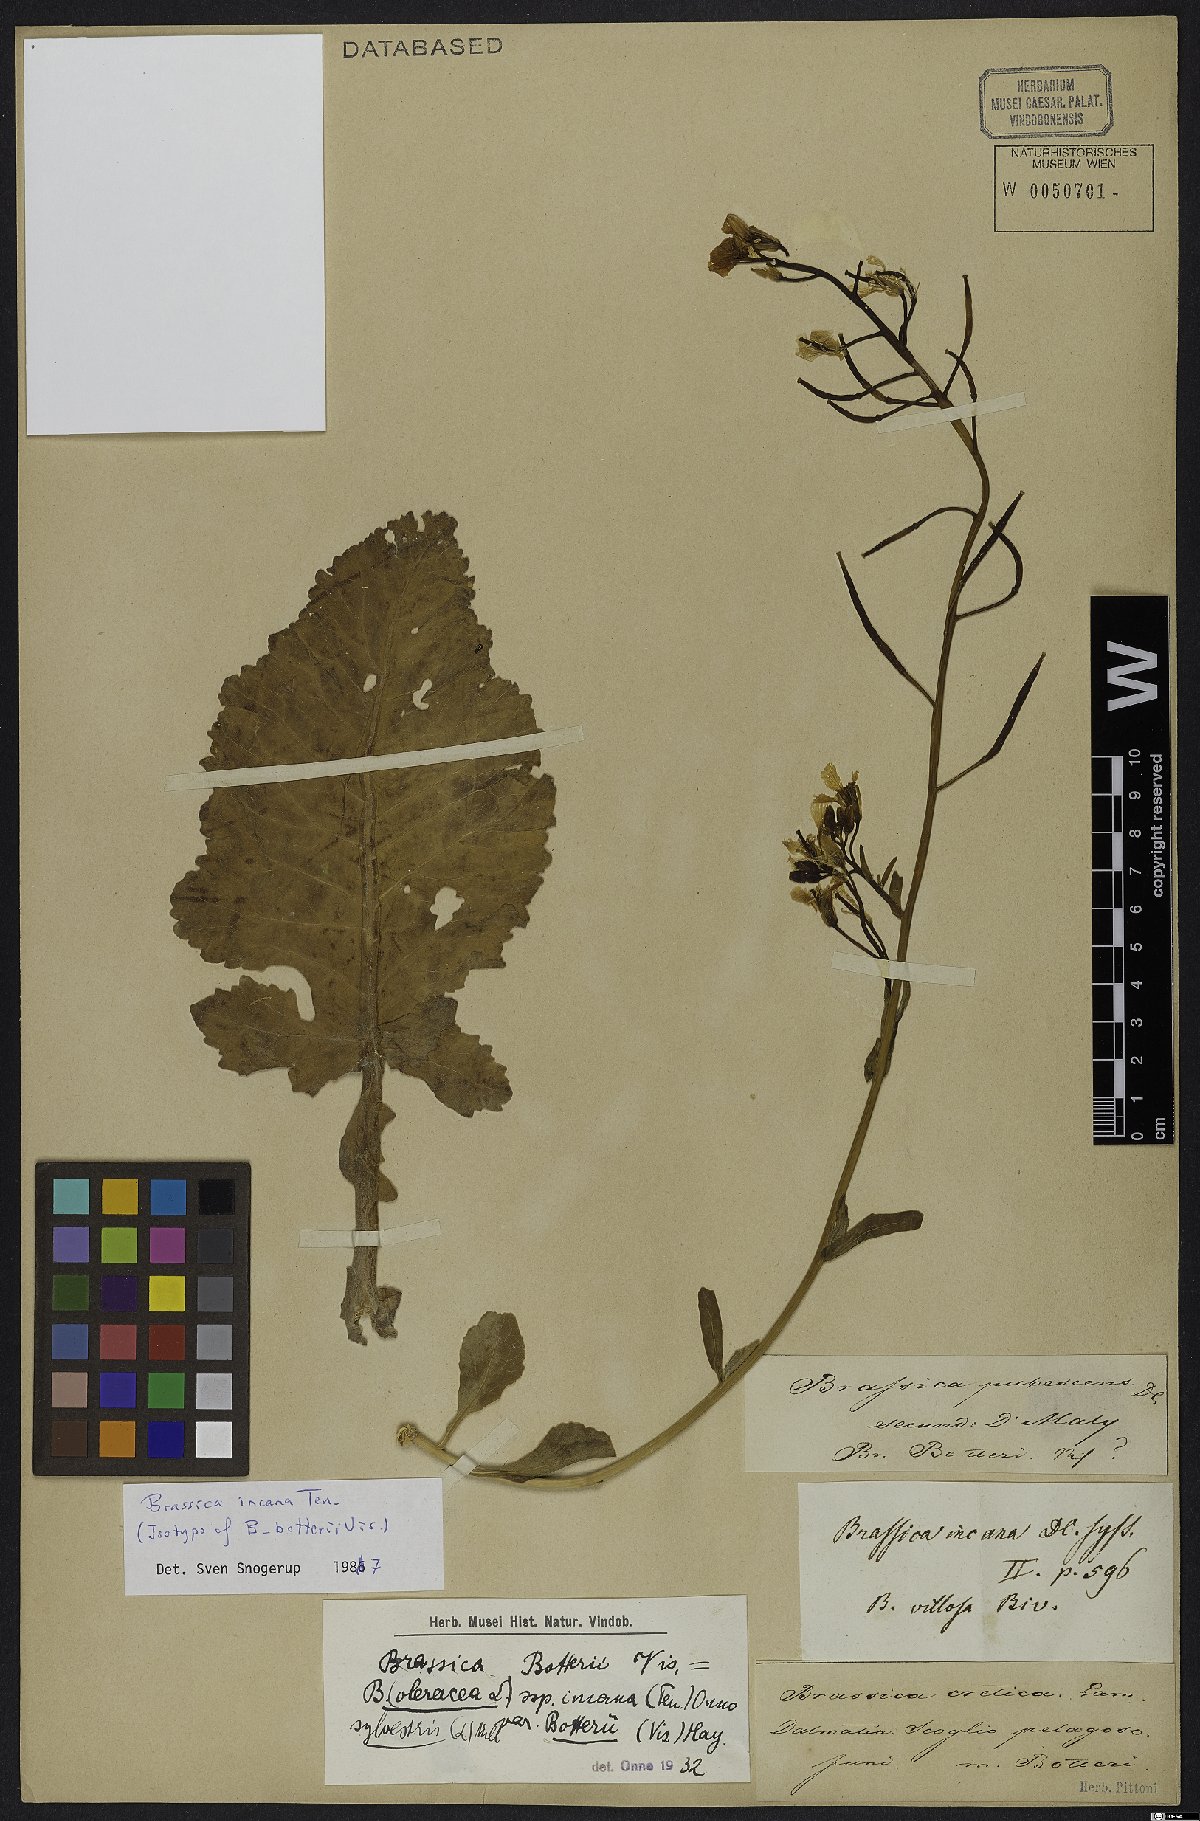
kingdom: Plantae
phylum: Tracheophyta
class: Magnoliopsida
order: Brassicales
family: Brassicaceae
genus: Brassica
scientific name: Brassica incana
